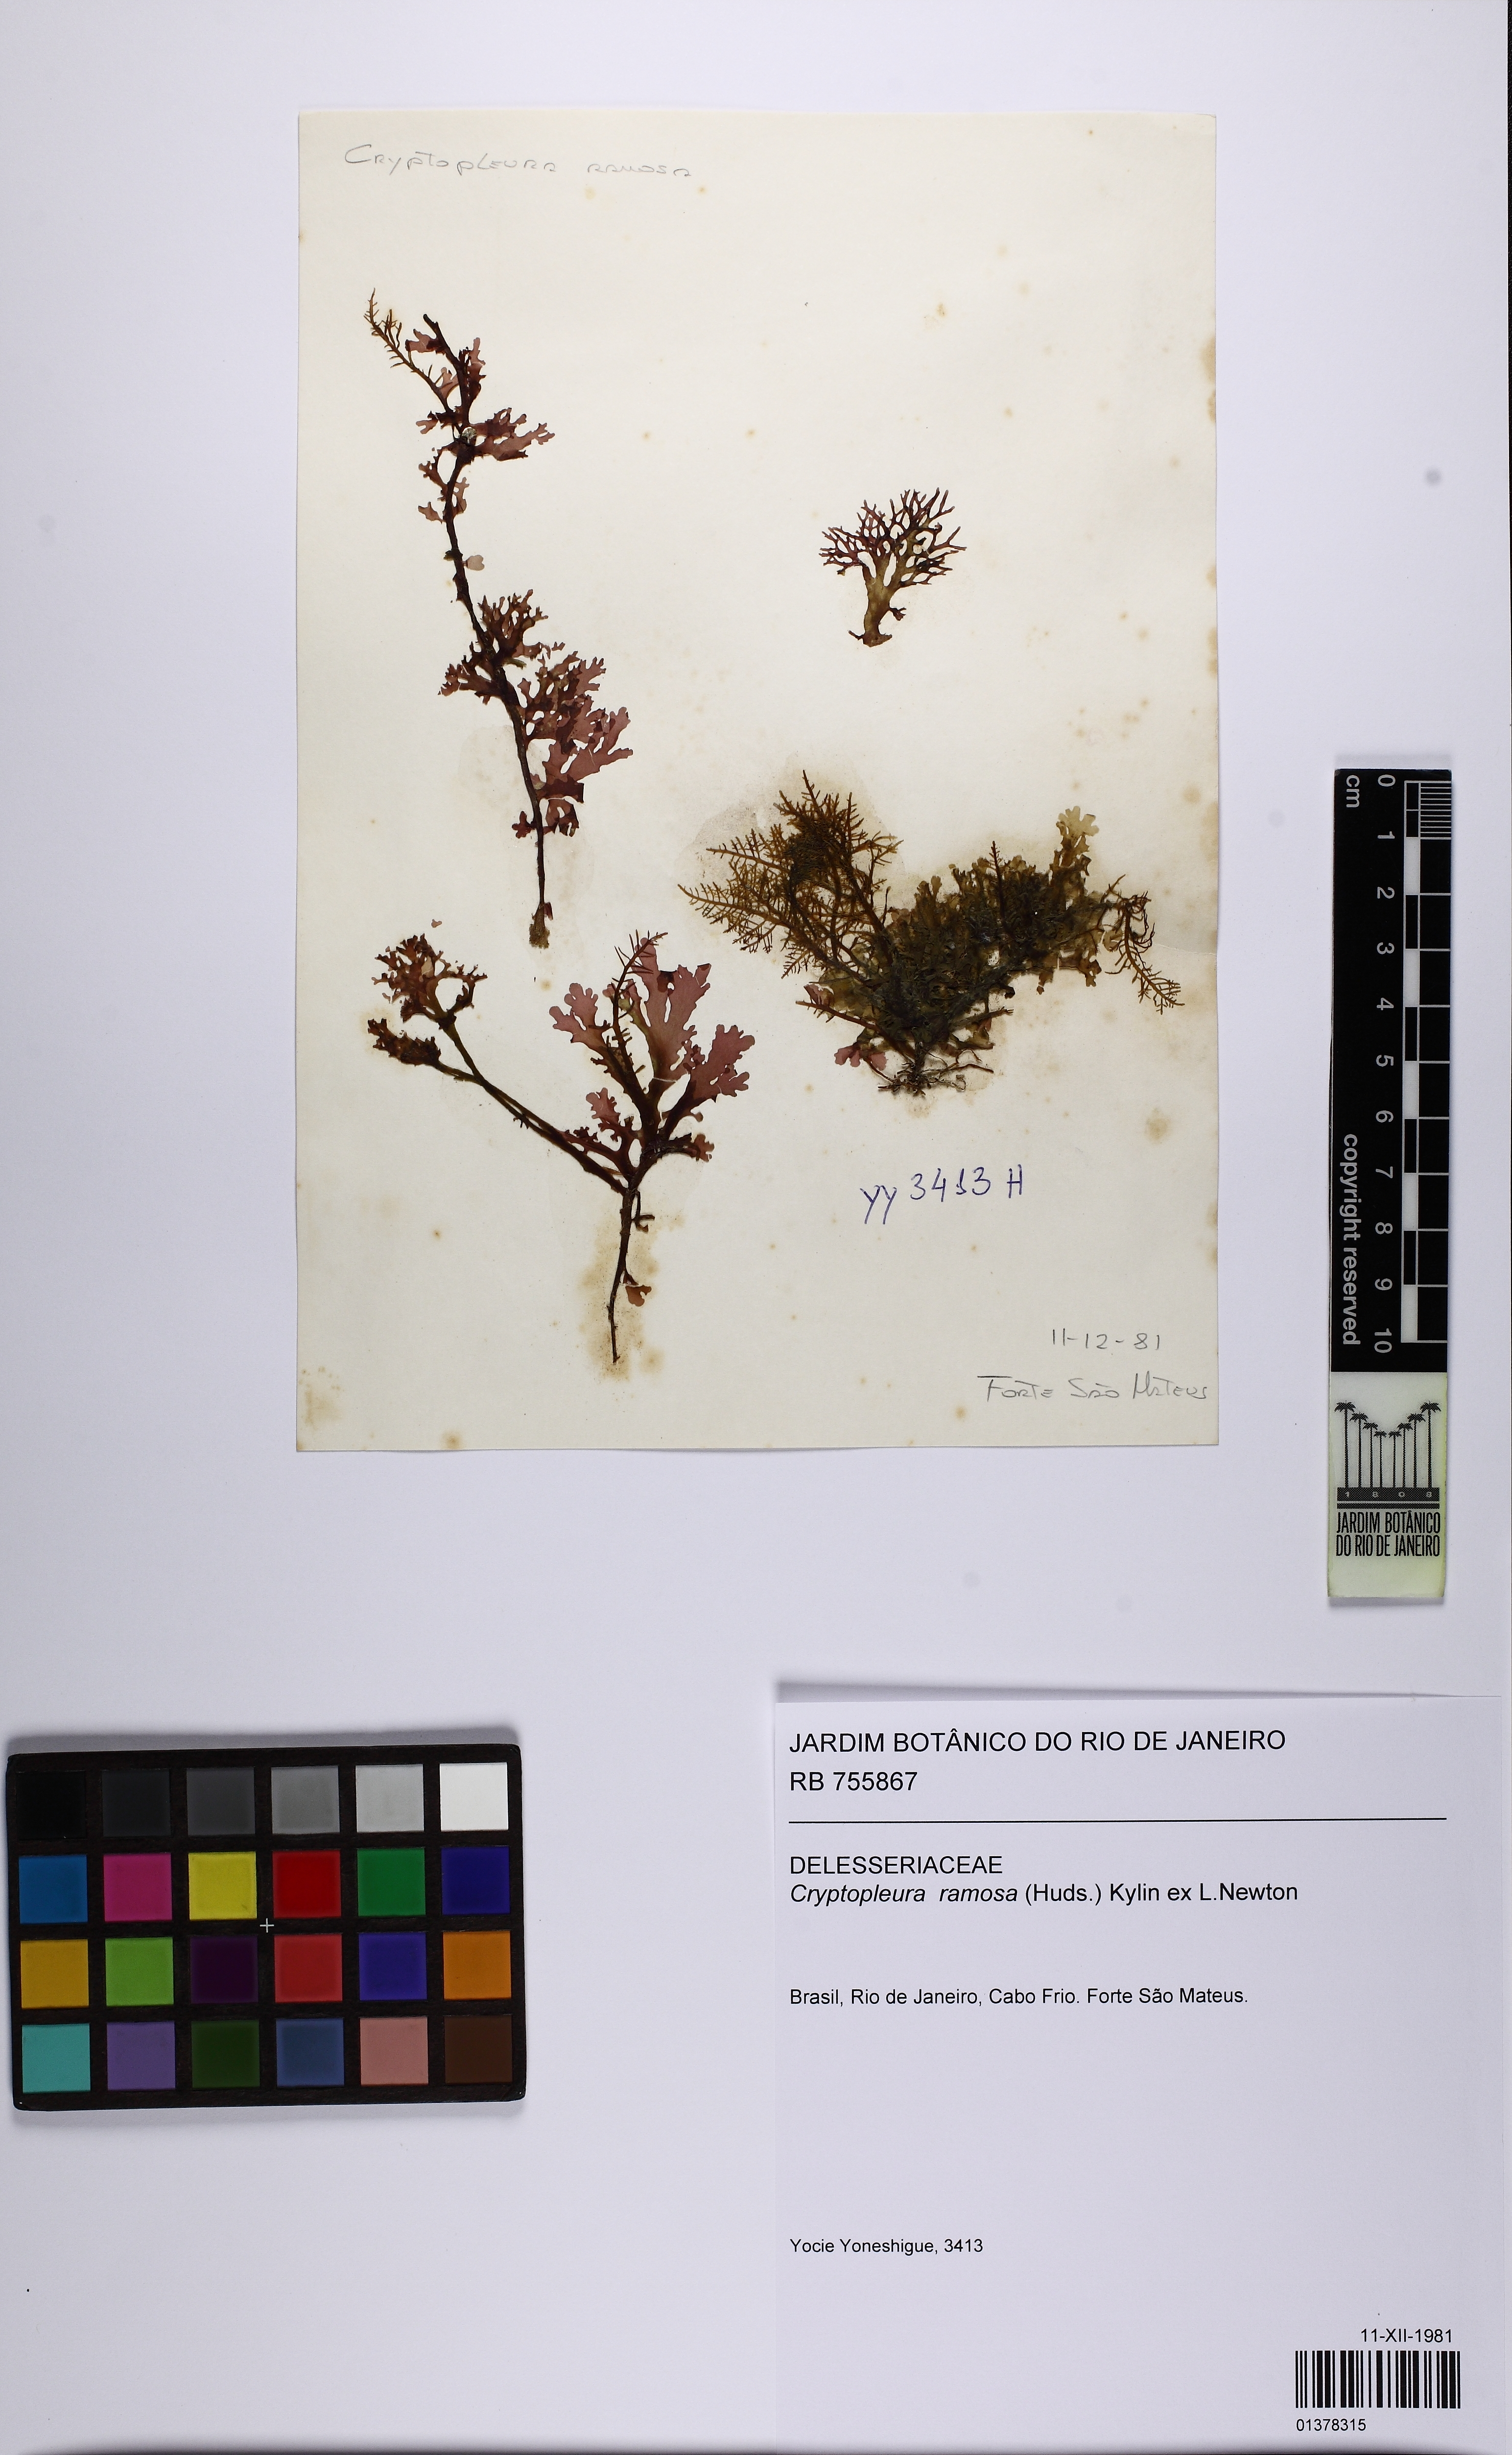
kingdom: Plantae
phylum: Rhodophyta
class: Florideophyceae
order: Ceramiales
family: Delesseriaceae
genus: Cryptopleura
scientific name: Cryptopleura ramosa
